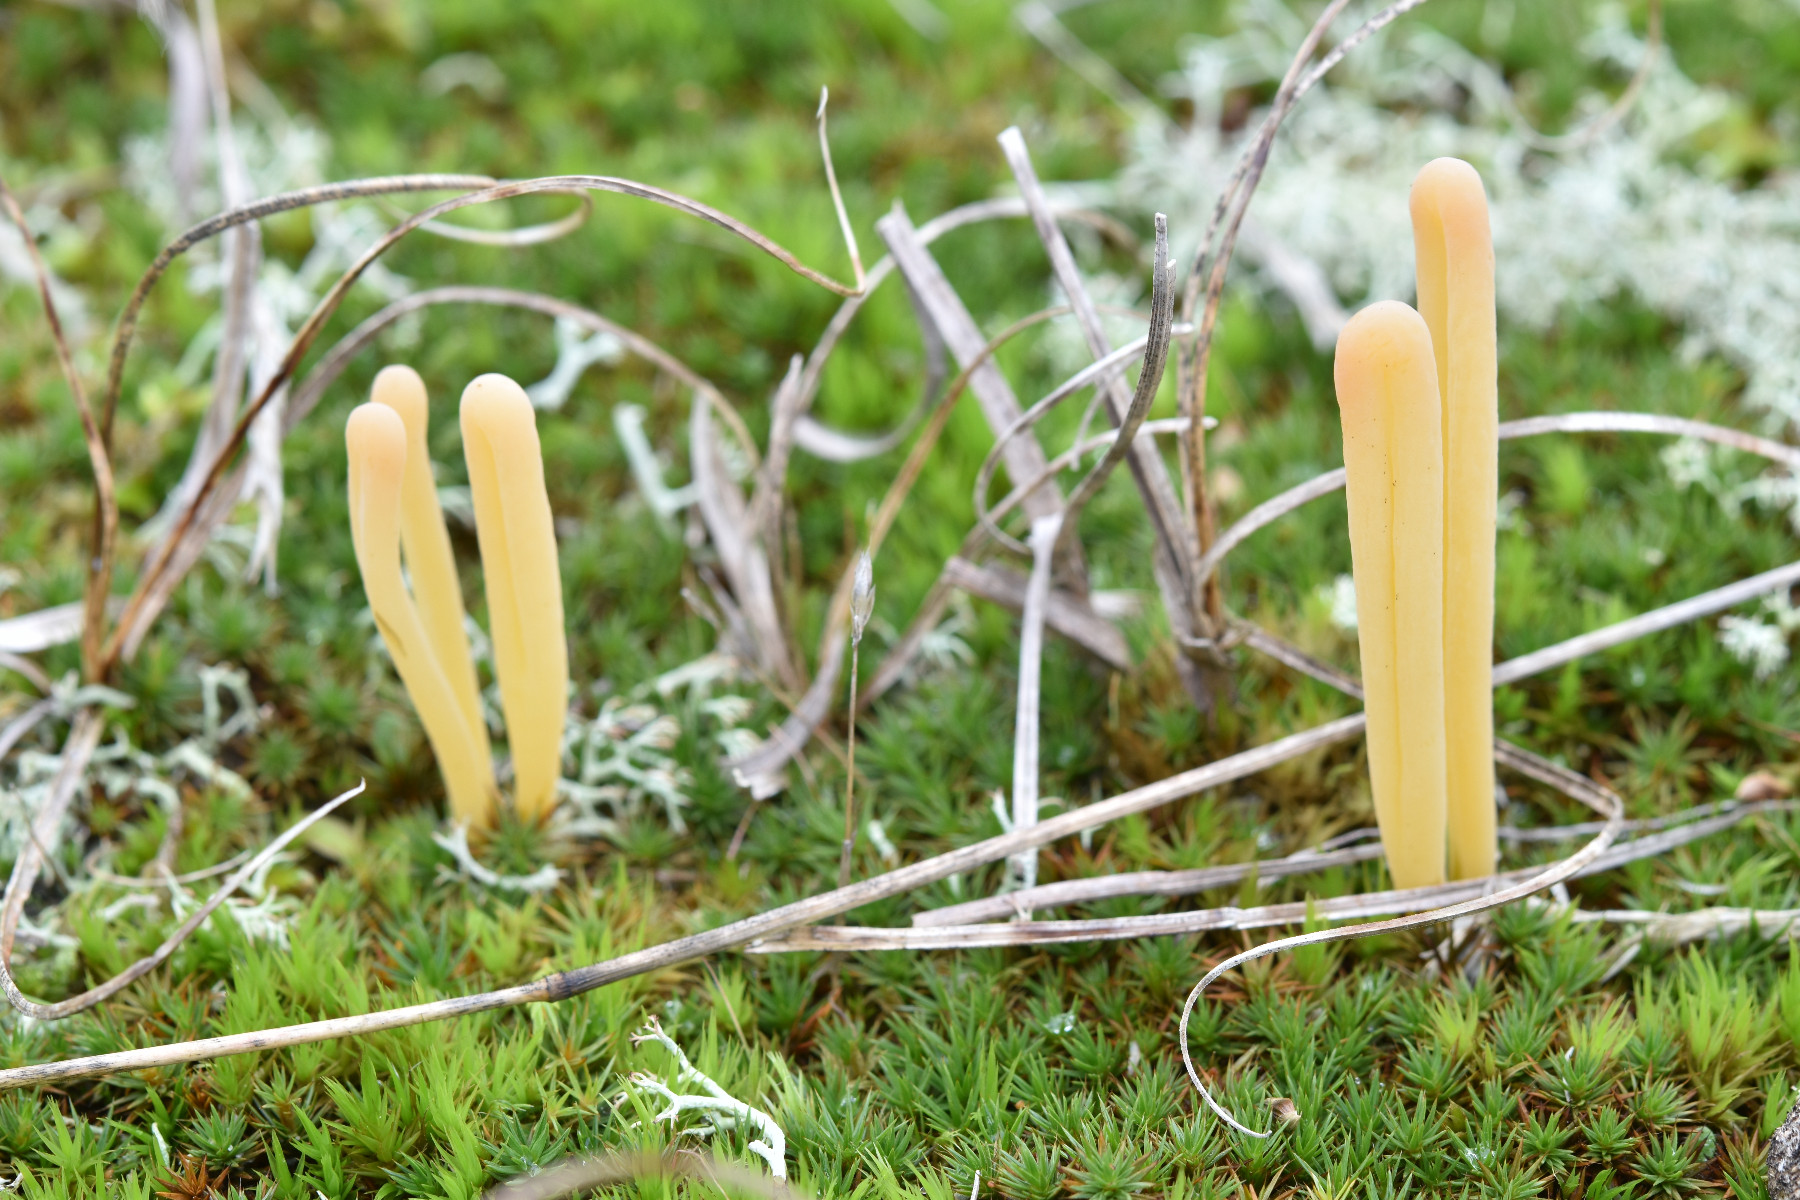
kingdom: Fungi
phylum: Basidiomycota
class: Agaricomycetes
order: Agaricales
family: Clavariaceae
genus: Clavaria
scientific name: Clavaria argillacea
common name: lerfarvet køllesvamp
